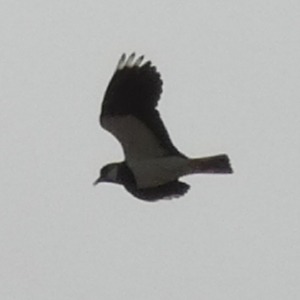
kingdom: Animalia
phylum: Chordata
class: Aves
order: Charadriiformes
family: Charadriidae
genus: Vanellus
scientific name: Vanellus vanellus
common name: Vibe
